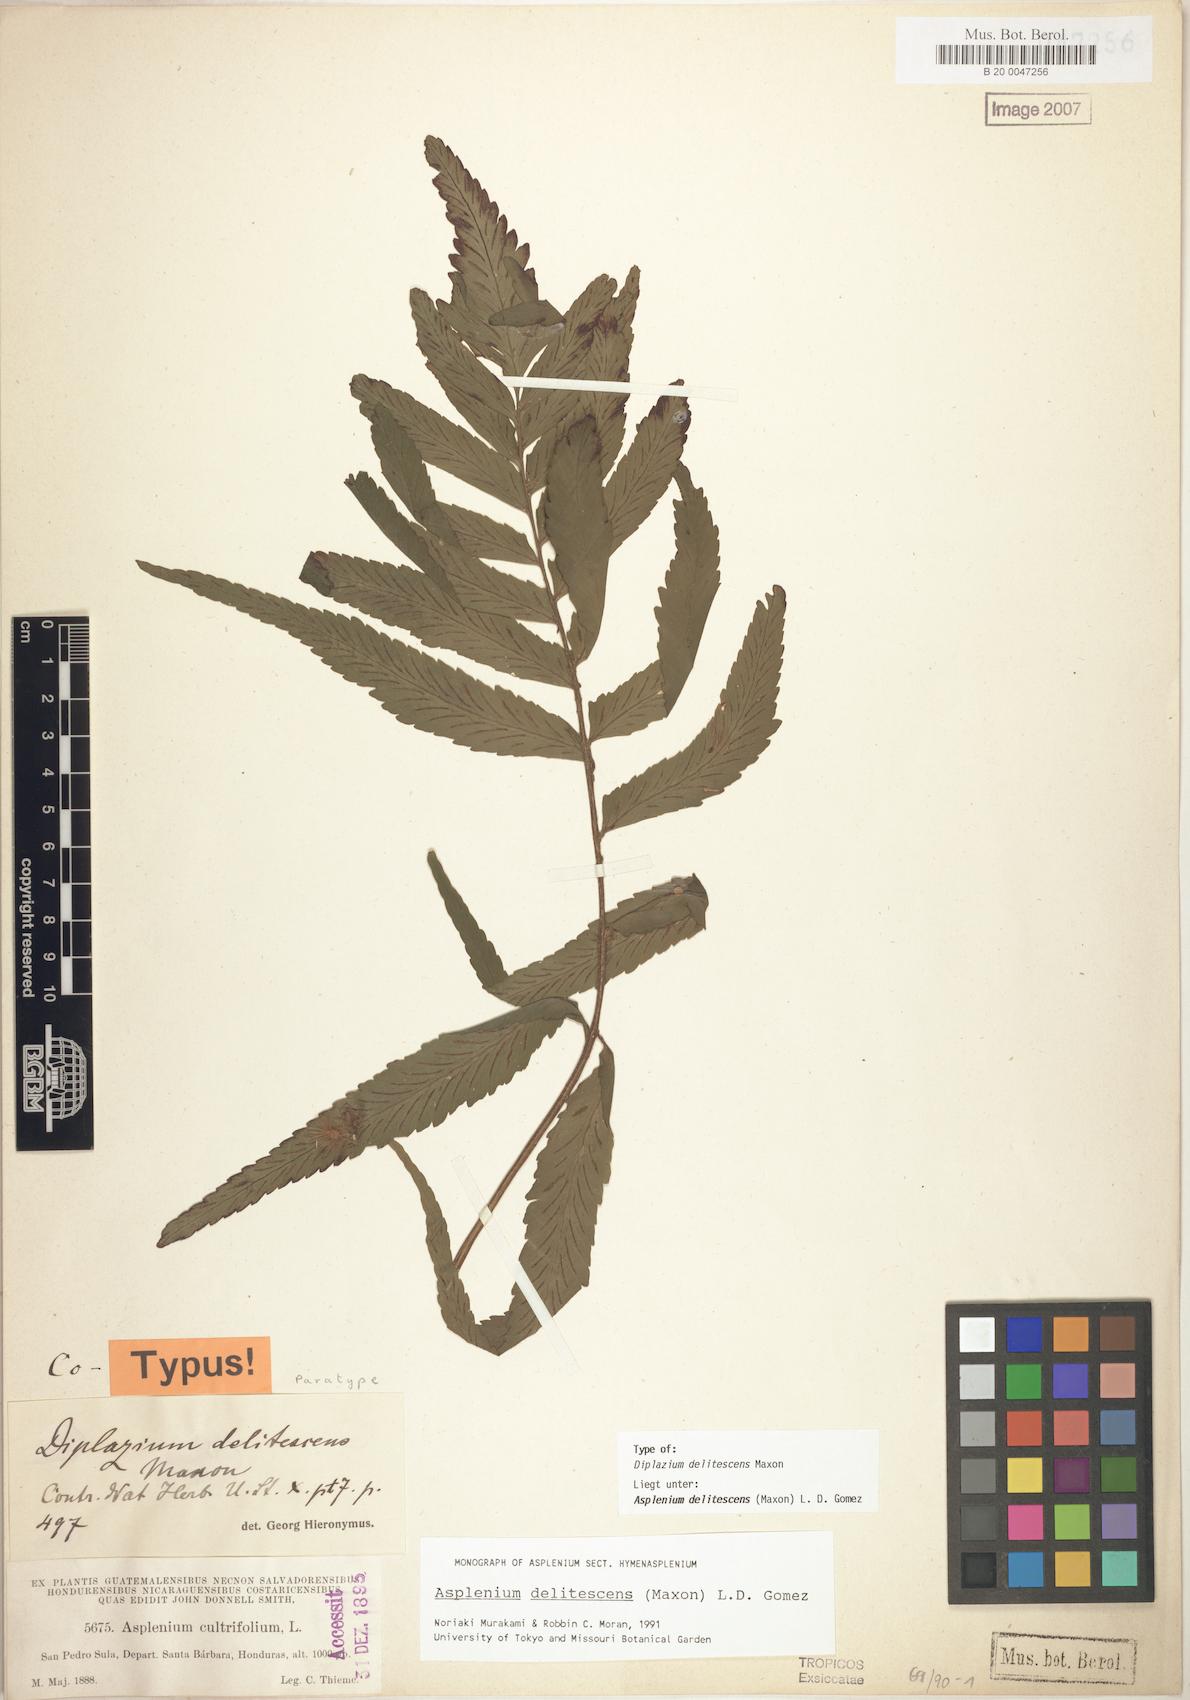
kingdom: Plantae
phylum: Tracheophyta
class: Polypodiopsida
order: Polypodiales
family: Aspleniaceae
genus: Hymenasplenium
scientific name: Hymenasplenium delitescens
